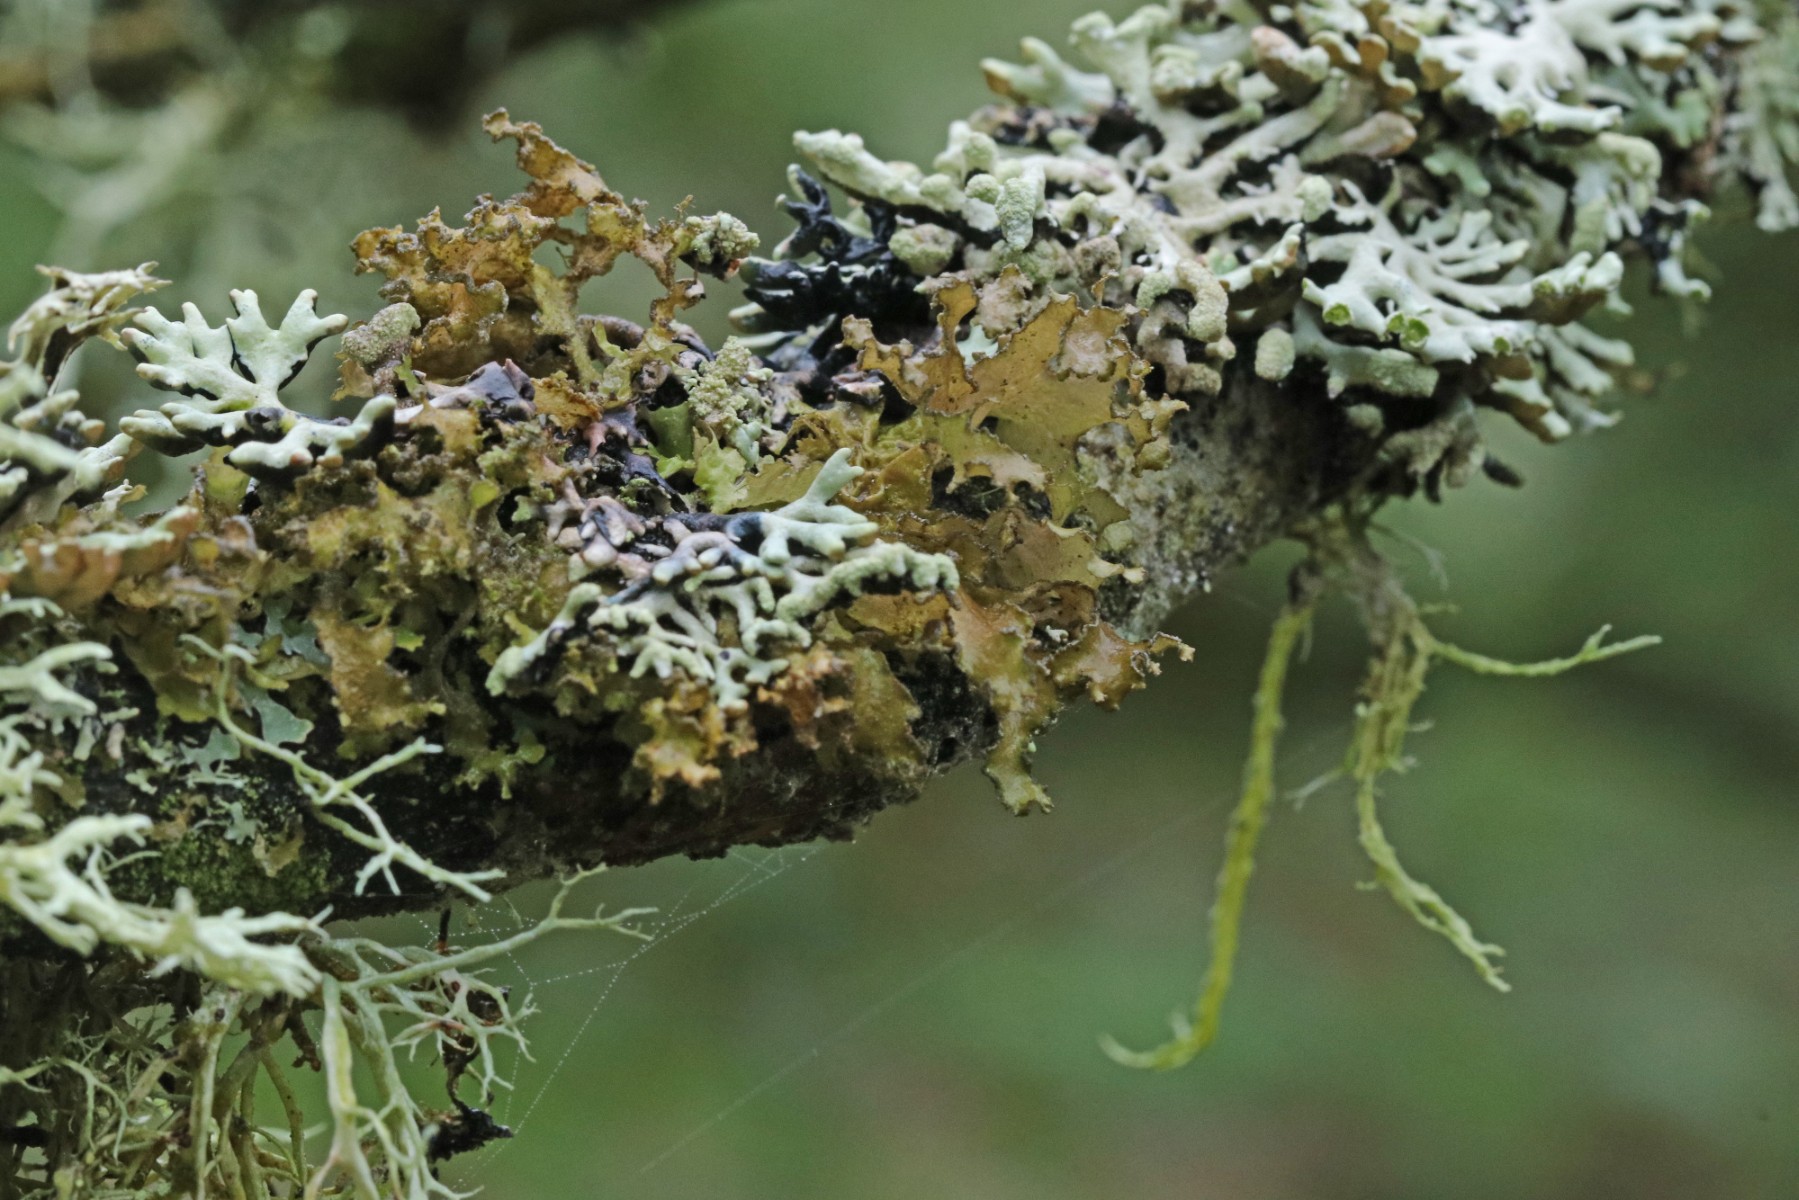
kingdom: Fungi
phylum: Ascomycota
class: Lecanoromycetes
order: Lecanorales
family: Parmeliaceae
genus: Nephromopsis
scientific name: Nephromopsis chlorophylla
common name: olivenbrun kruslav
